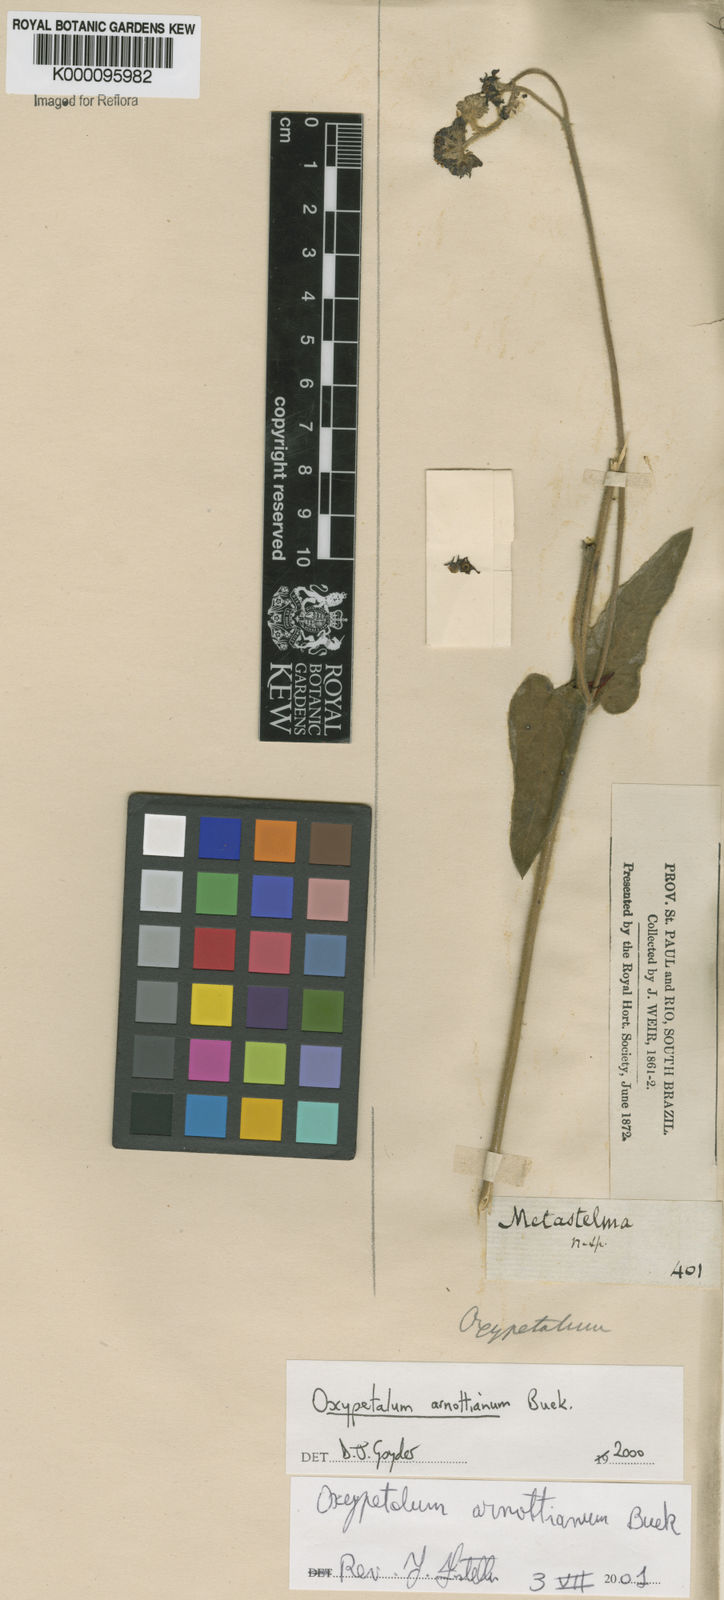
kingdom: Plantae
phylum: Tracheophyta
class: Magnoliopsida
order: Gentianales
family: Apocynaceae
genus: Oxypetalum
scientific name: Oxypetalum arnottianum
